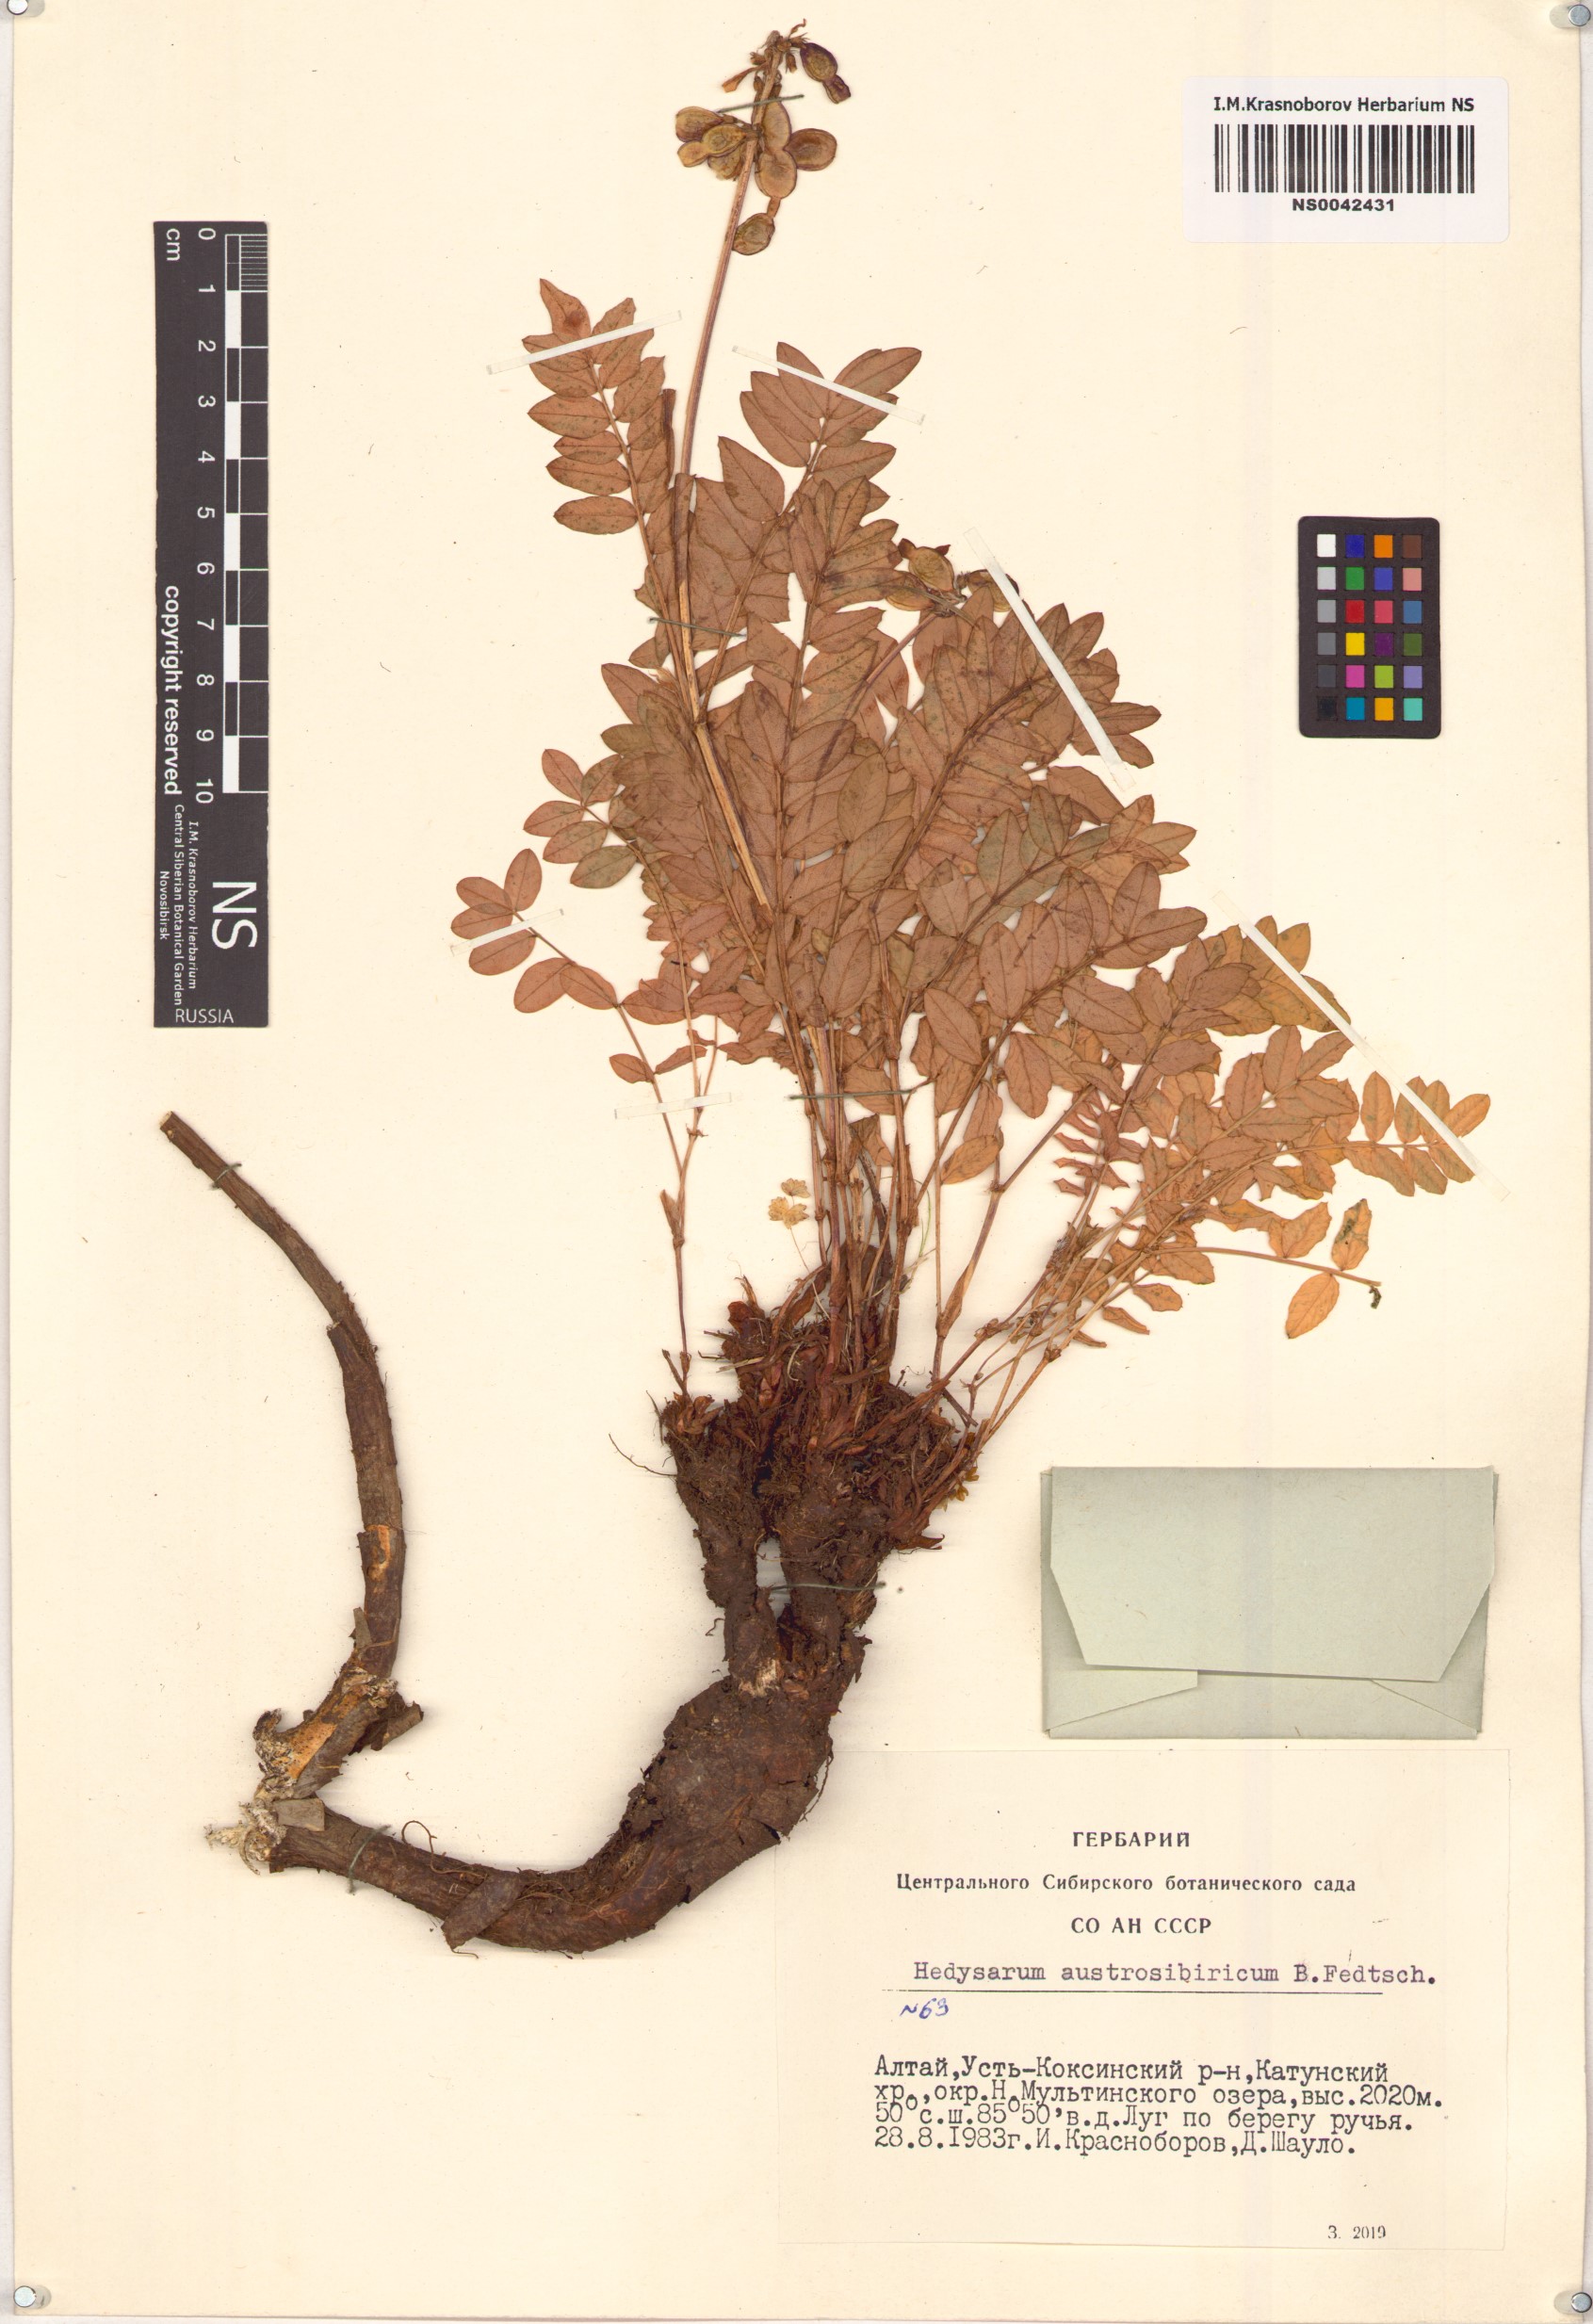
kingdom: Plantae
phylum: Tracheophyta
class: Magnoliopsida
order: Fabales
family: Fabaceae
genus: Hedysarum
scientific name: Hedysarum neglectum
